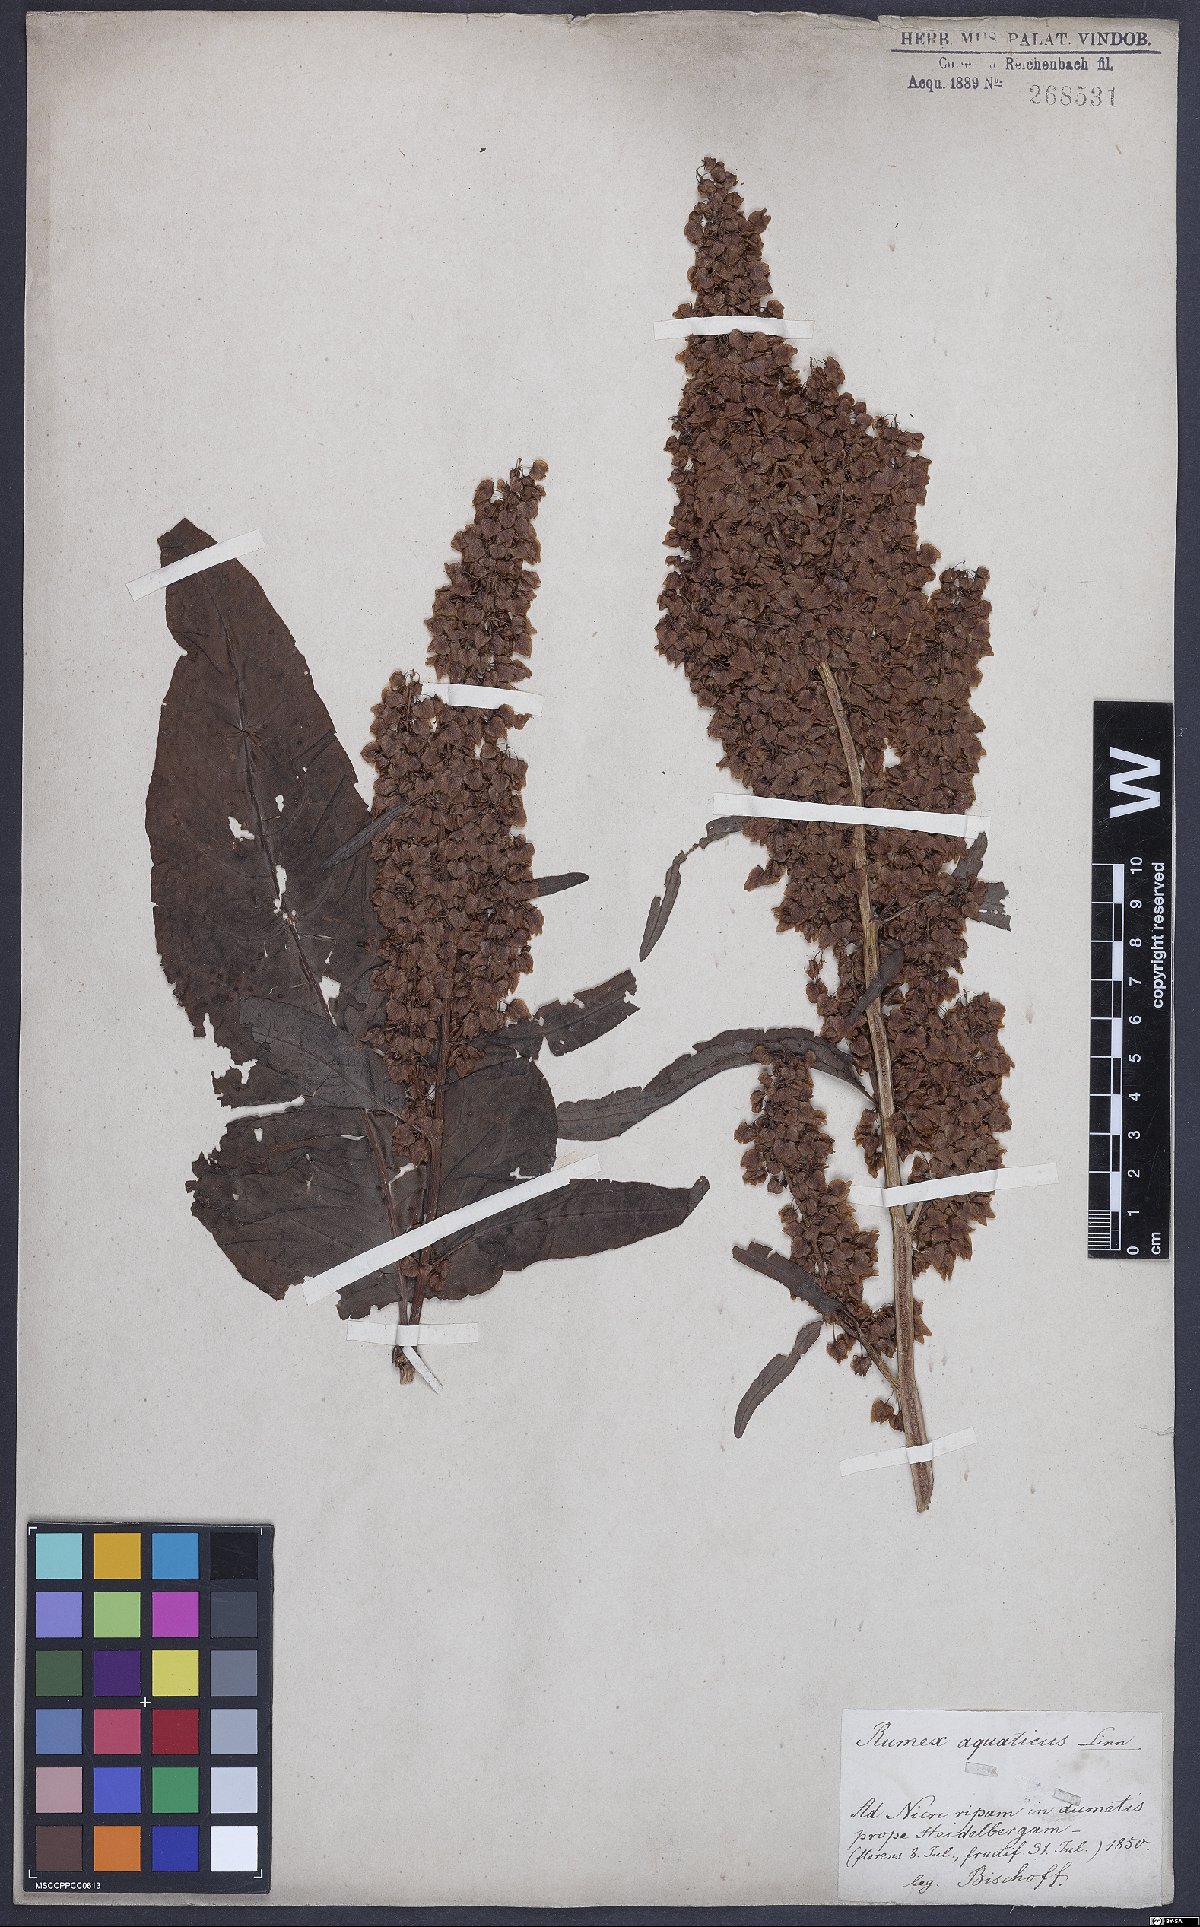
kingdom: Plantae
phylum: Tracheophyta
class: Magnoliopsida
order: Caryophyllales
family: Polygonaceae
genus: Rumex
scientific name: Rumex aquaticus
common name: Scottish dock
